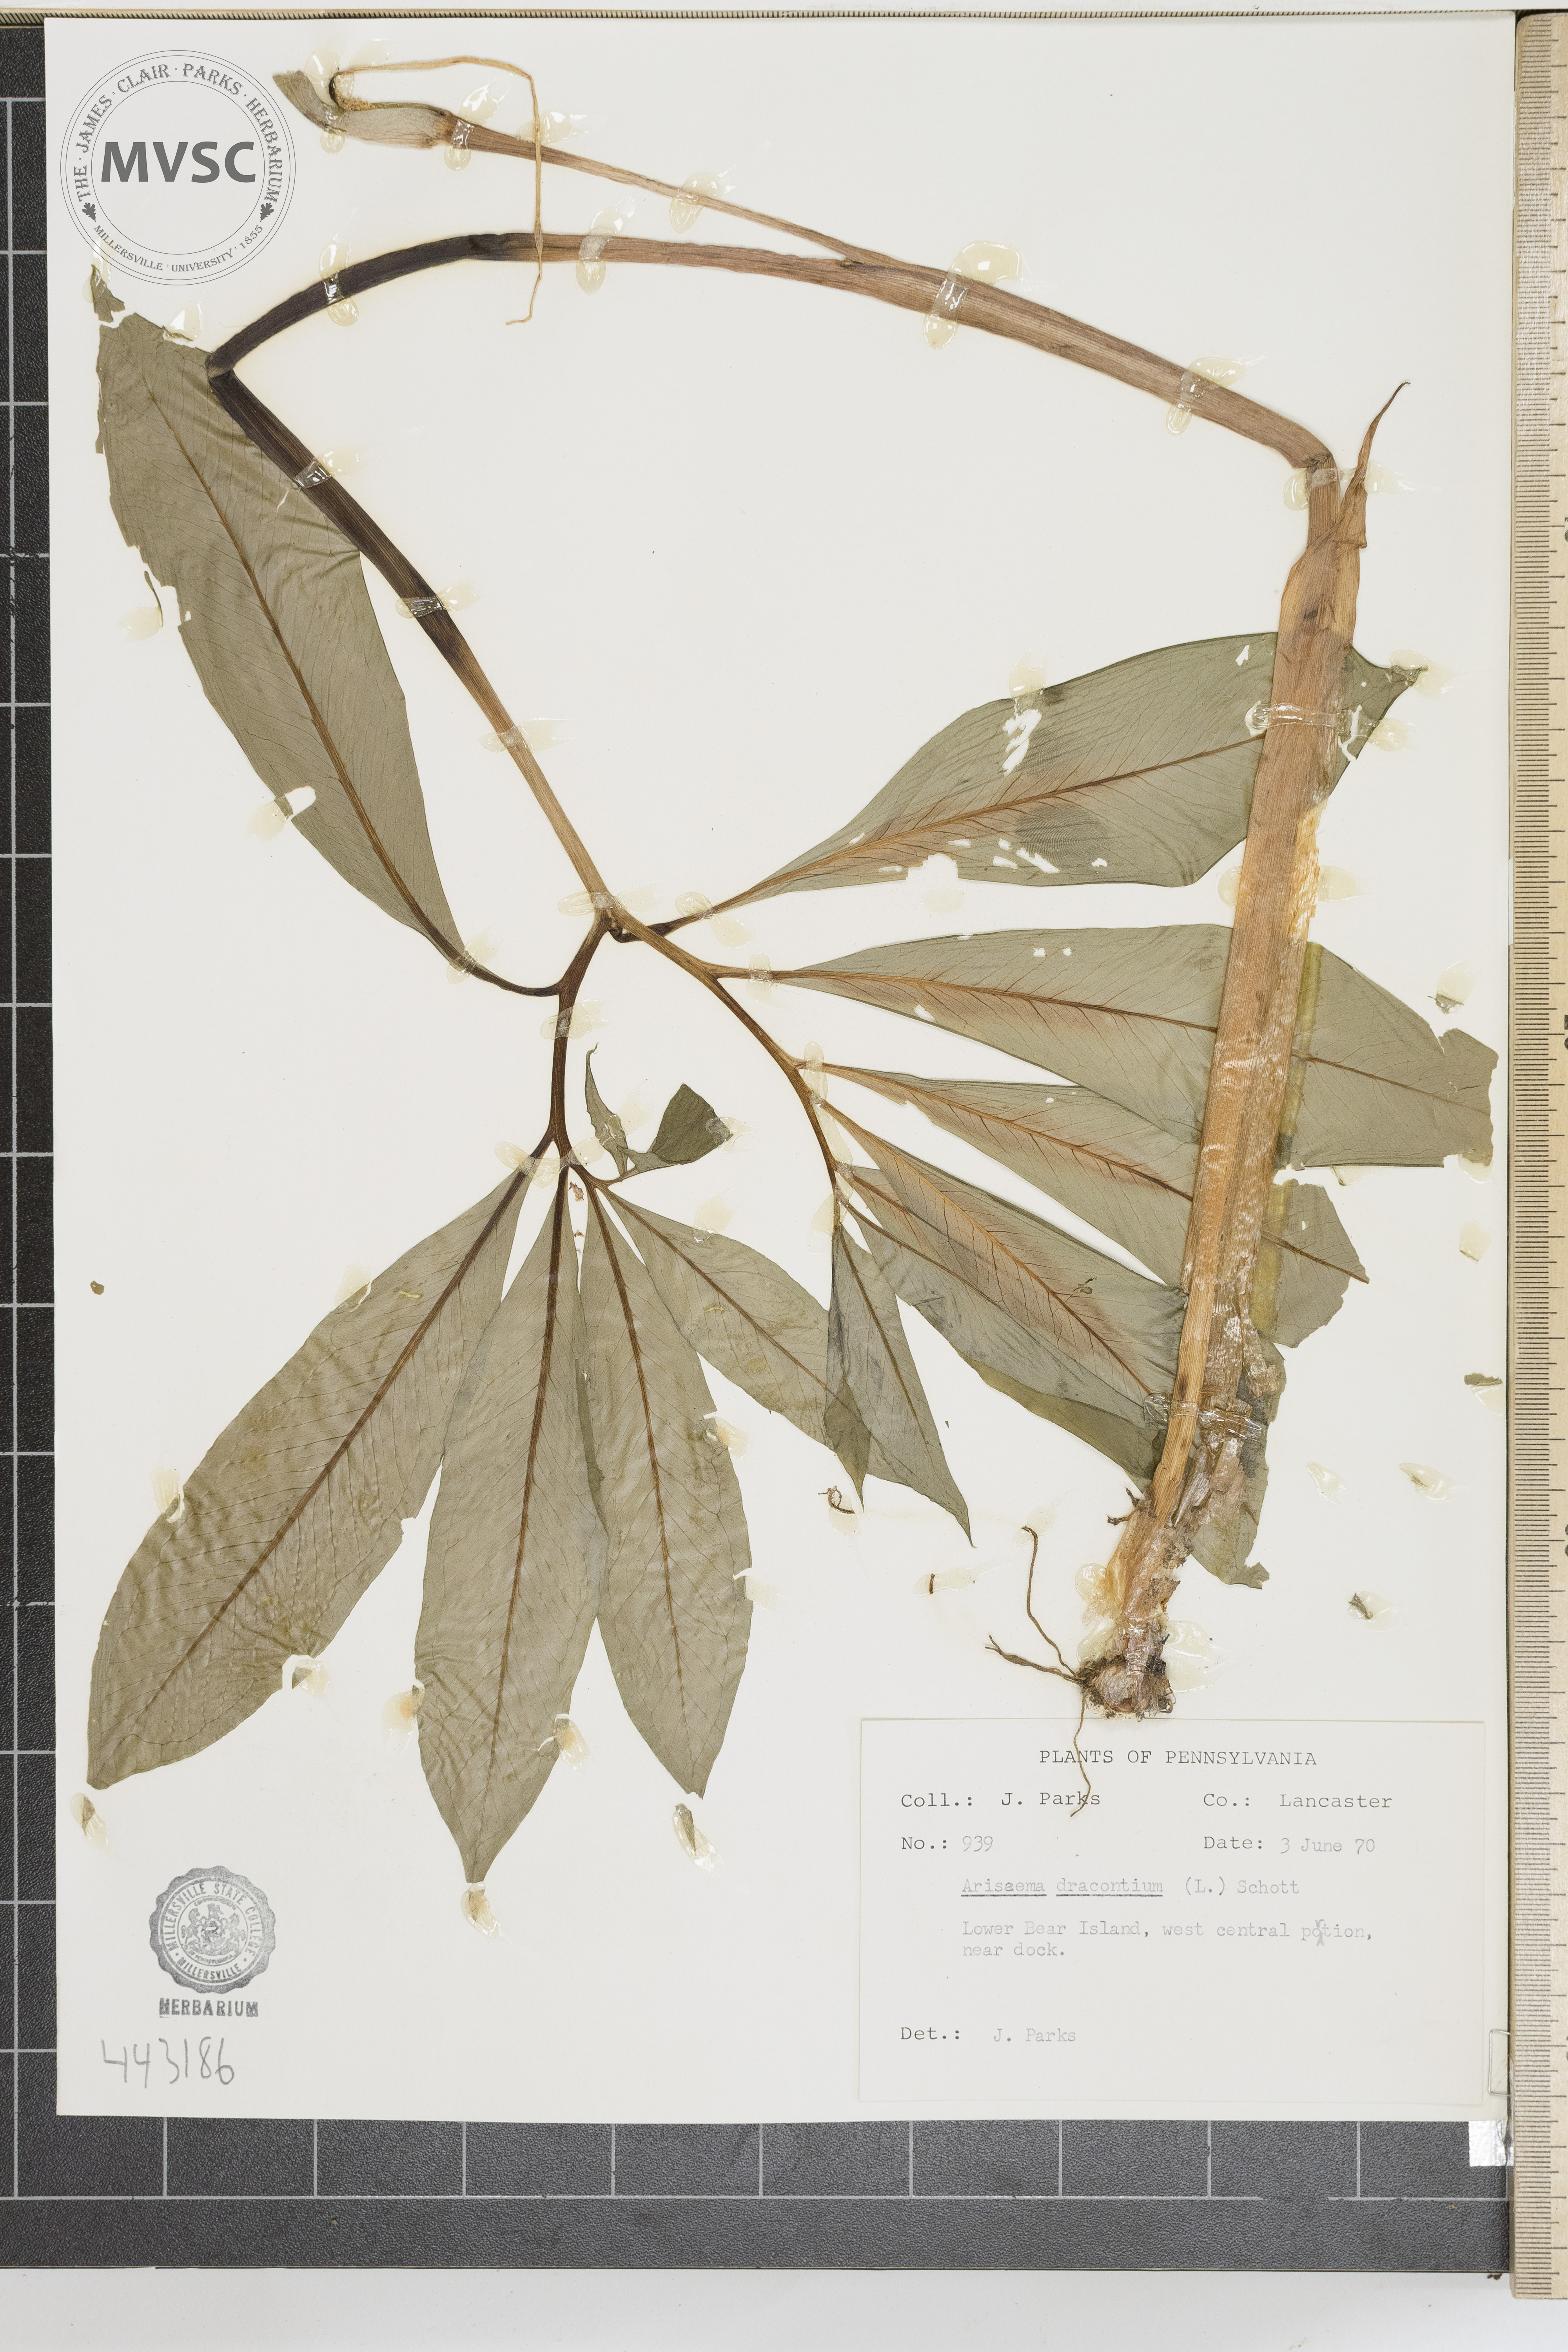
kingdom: Plantae
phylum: Tracheophyta
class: Liliopsida
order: Alismatales
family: Araceae
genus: Arisaema
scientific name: Arisaema dracontium
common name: Dragon-arum
